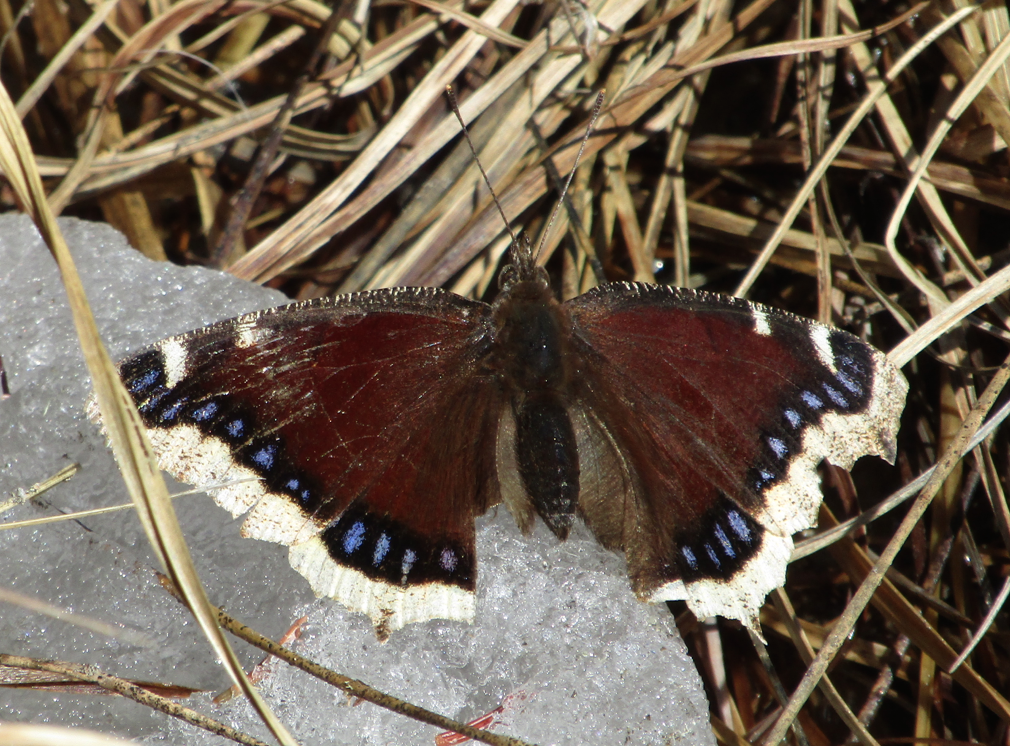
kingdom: Animalia
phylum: Arthropoda
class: Insecta
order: Lepidoptera
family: Nymphalidae
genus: Nymphalis
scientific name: Nymphalis antiopa
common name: Mourning Cloak
